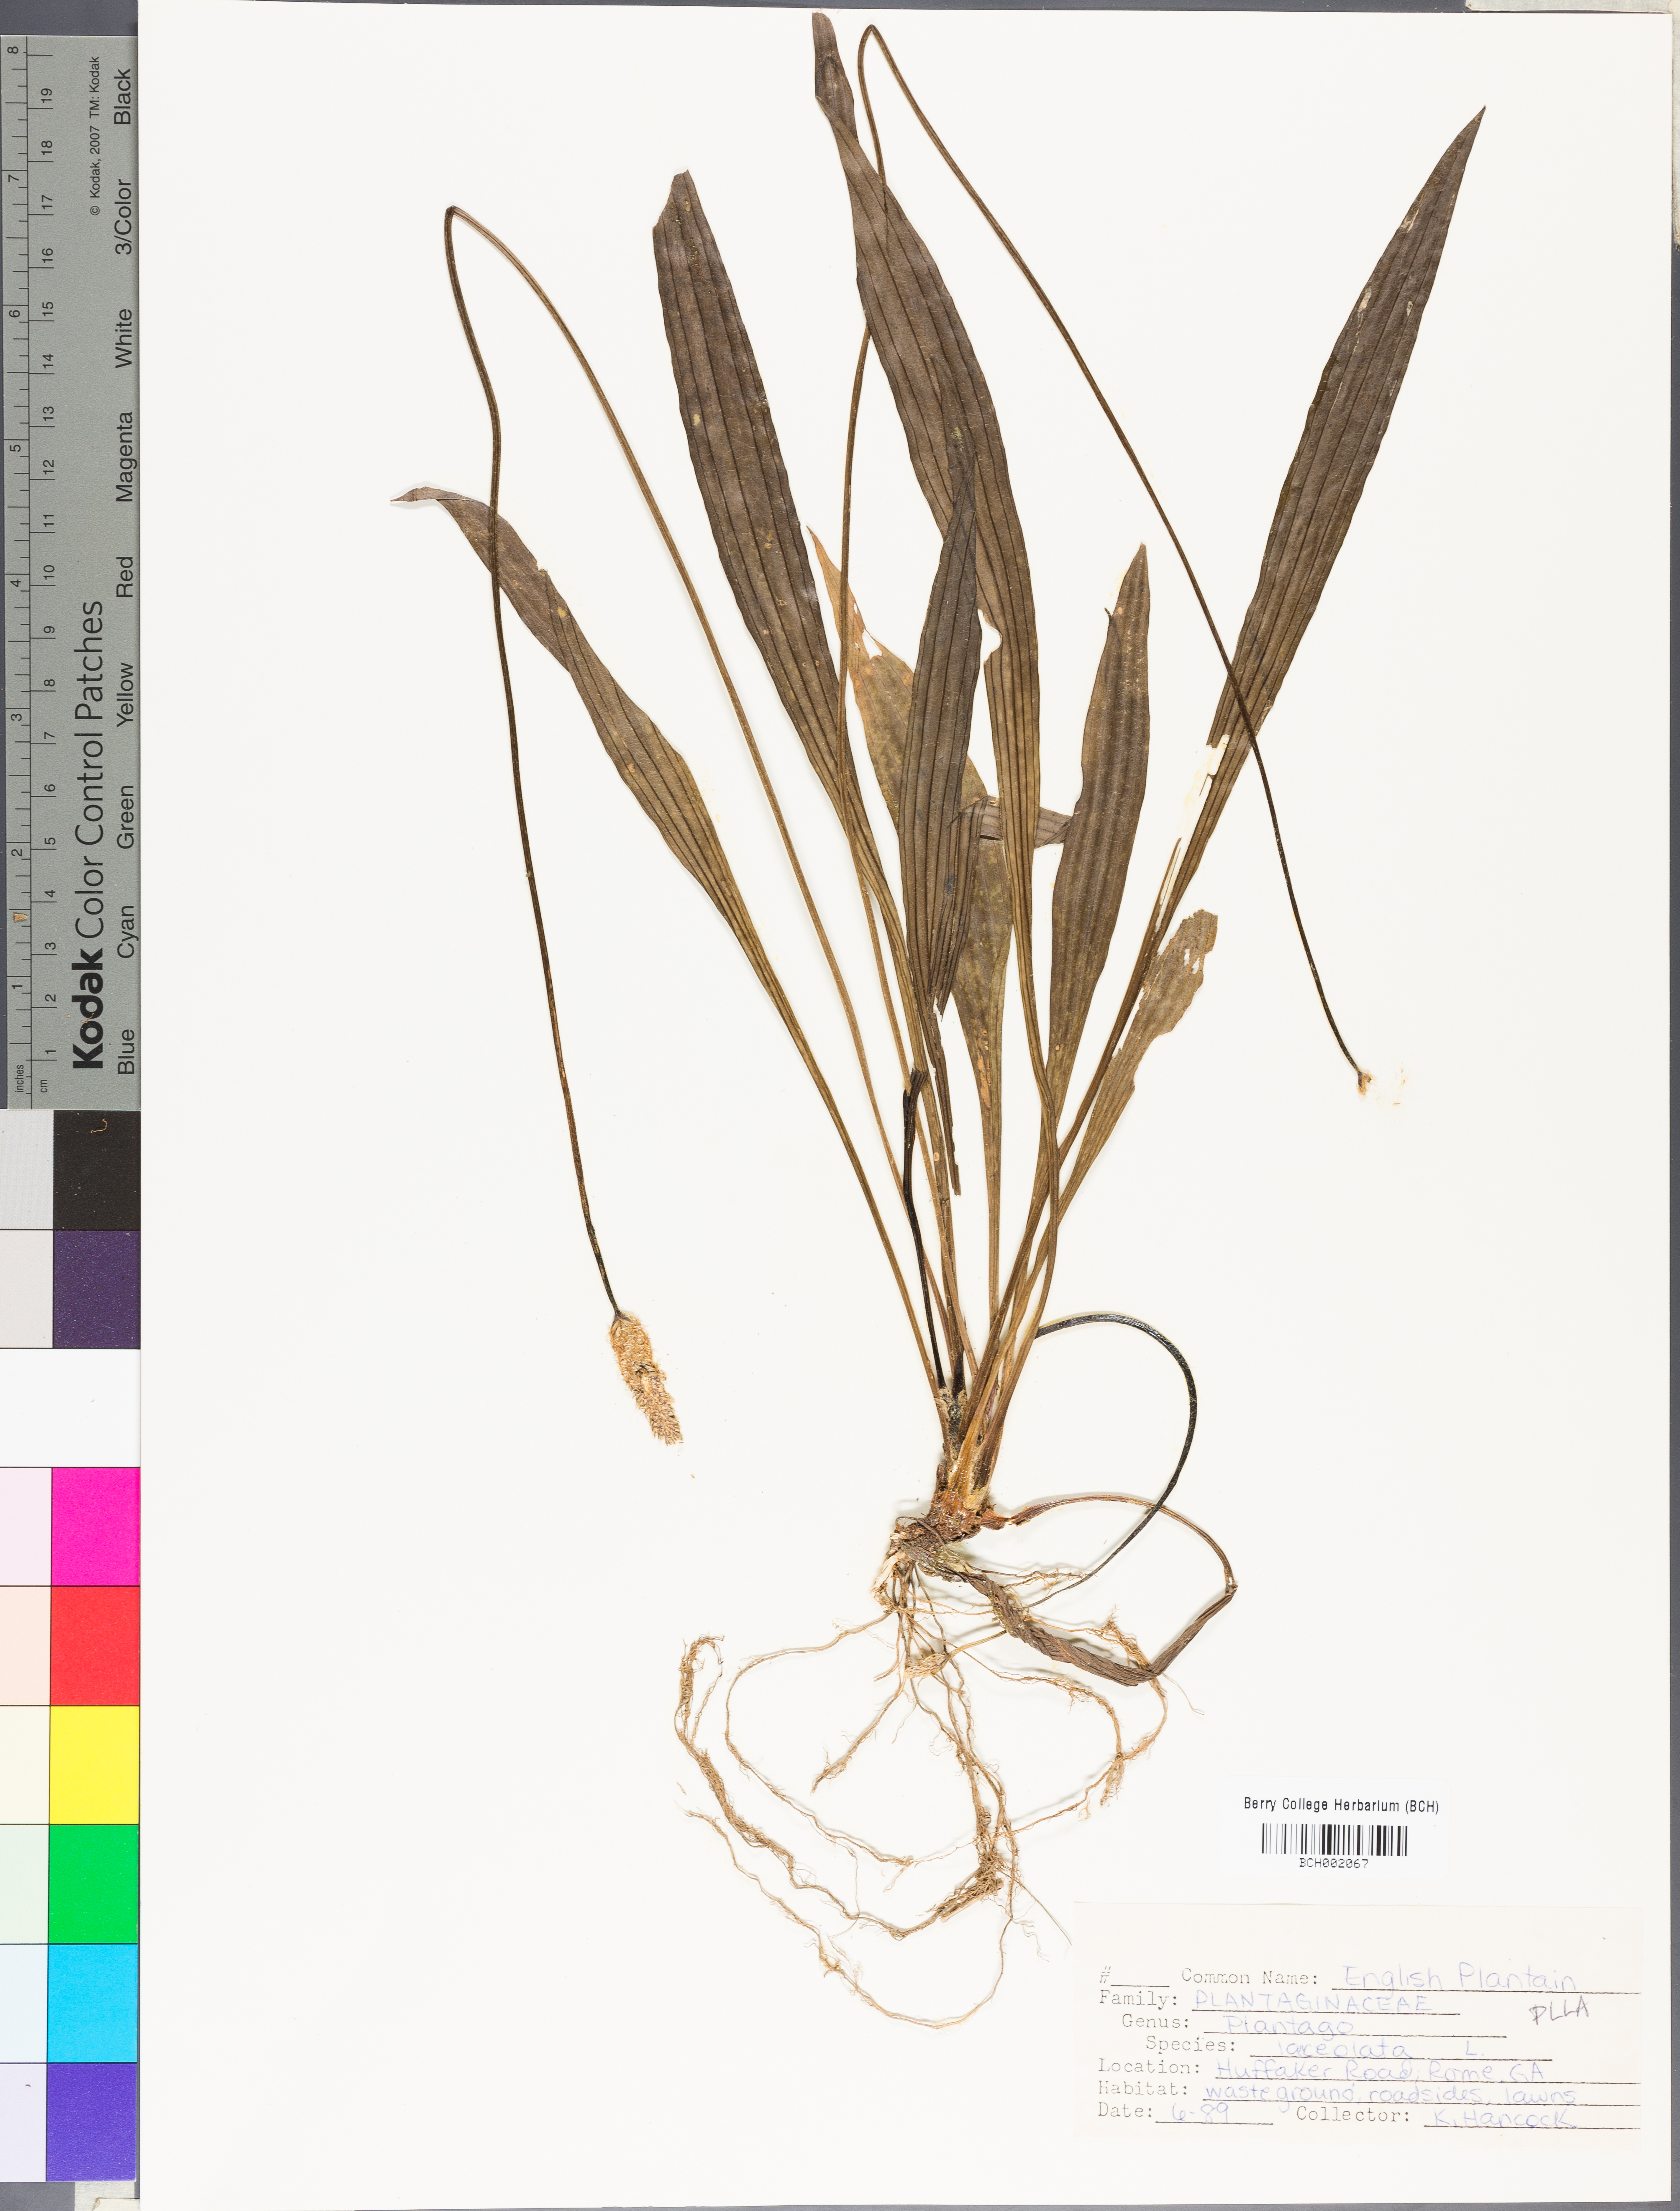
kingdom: Plantae
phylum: Tracheophyta
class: Magnoliopsida
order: Lamiales
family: Plantaginaceae
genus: Plantago
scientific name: Plantago lanceolata
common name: Ribwort plantain
